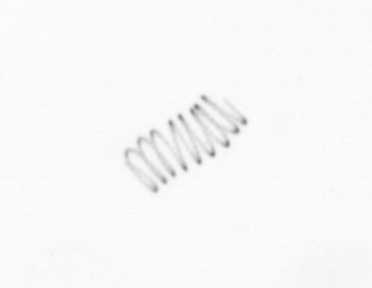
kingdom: Chromista
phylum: Ochrophyta
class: Bacillariophyceae
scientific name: Bacillariophyceae
